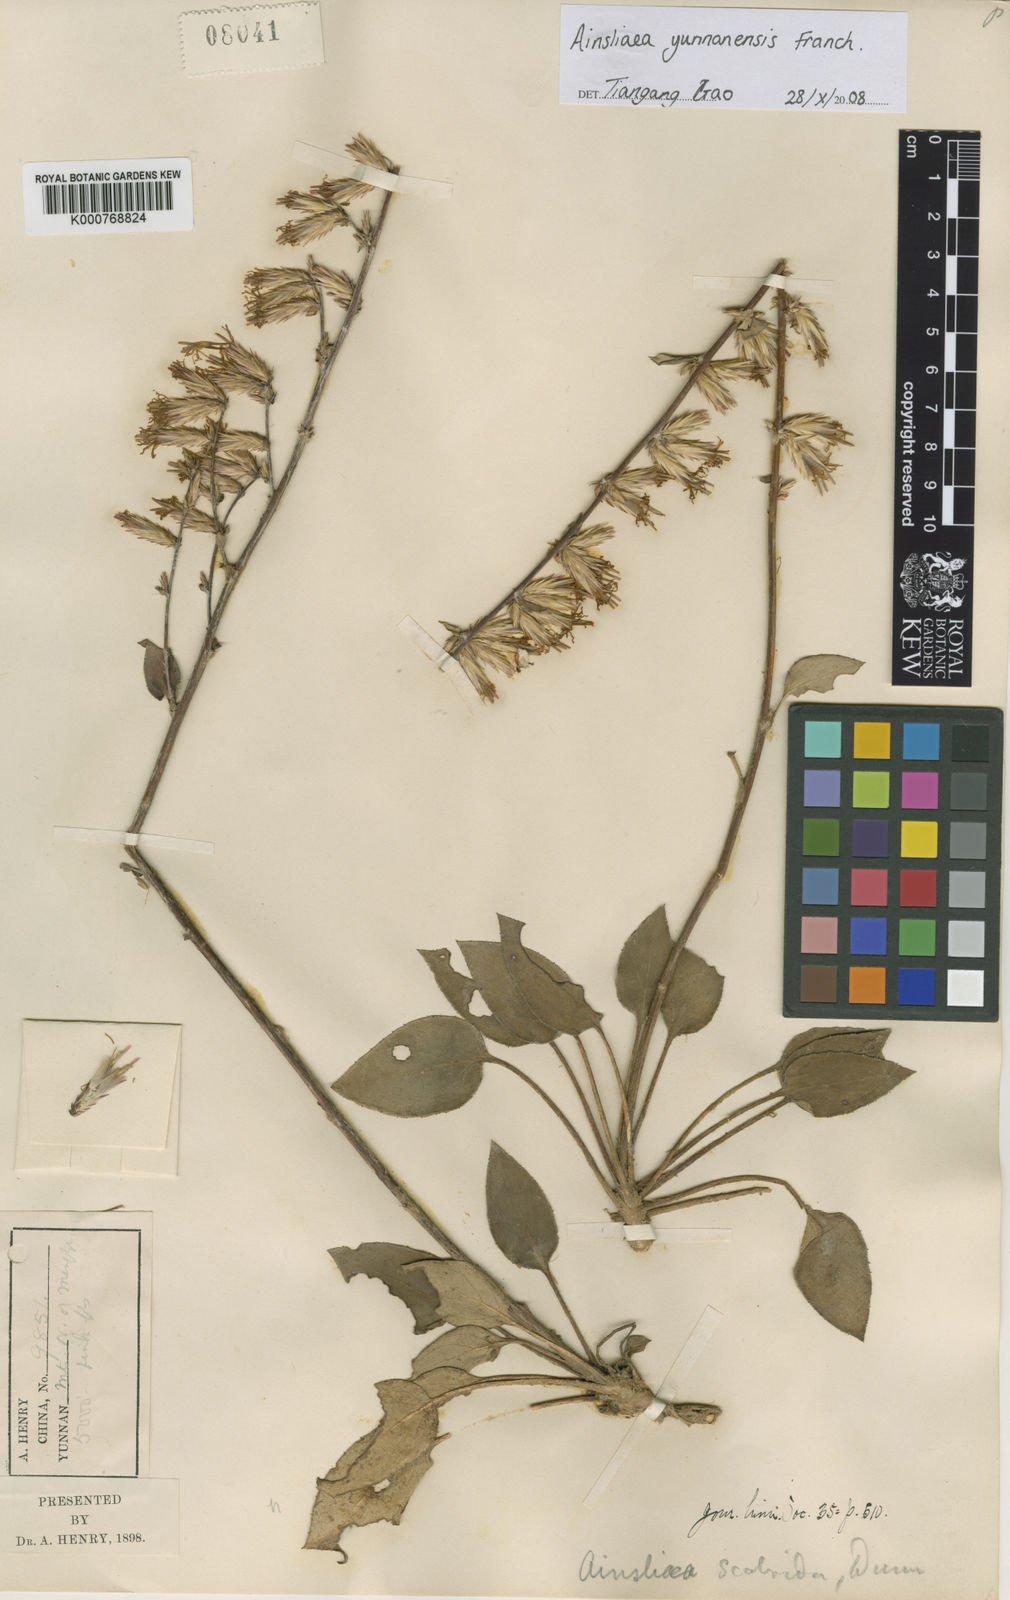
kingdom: Plantae
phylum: Tracheophyta
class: Magnoliopsida
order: Asterales
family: Asteraceae
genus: Ainsliaea
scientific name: Ainsliaea yunnanensis
